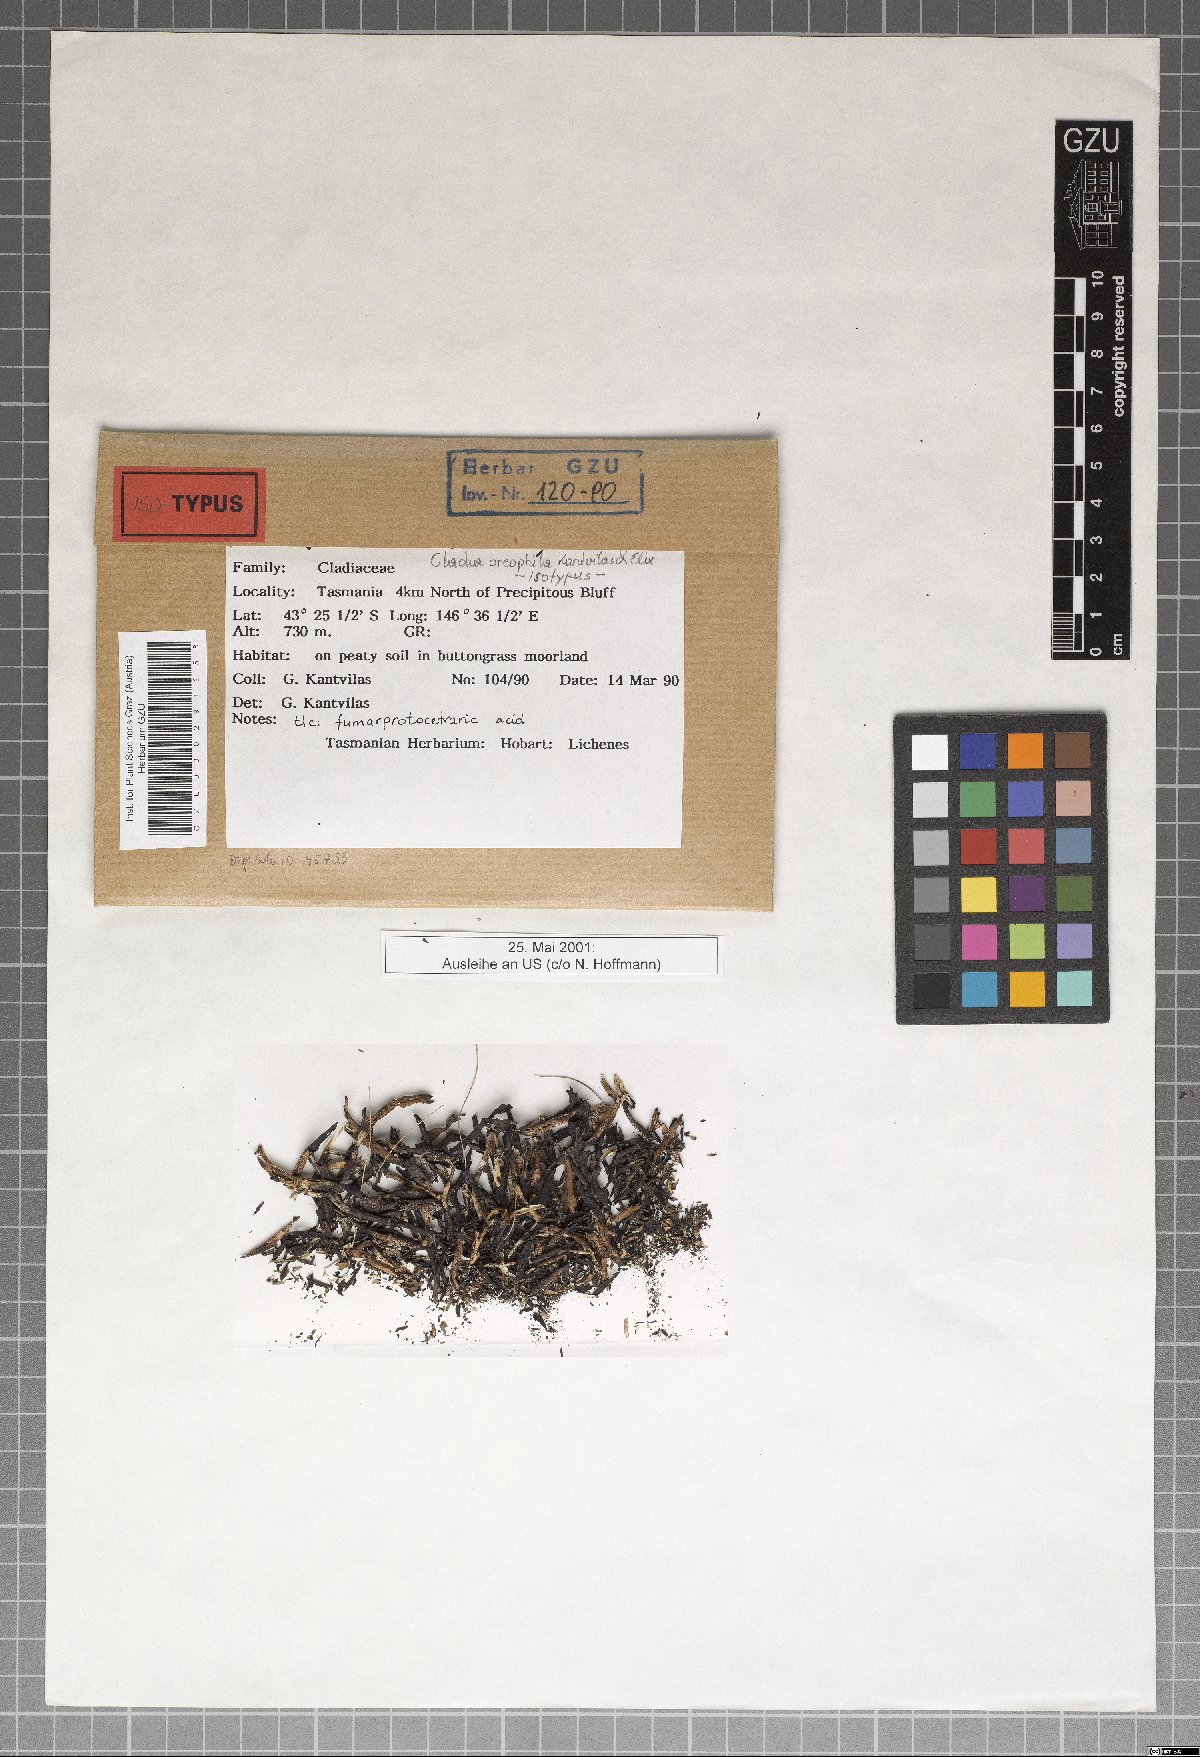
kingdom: Fungi
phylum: Ascomycota
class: Lecanoromycetes
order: Lecanorales
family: Cladoniaceae
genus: Cladia
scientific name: Cladia oreophila
